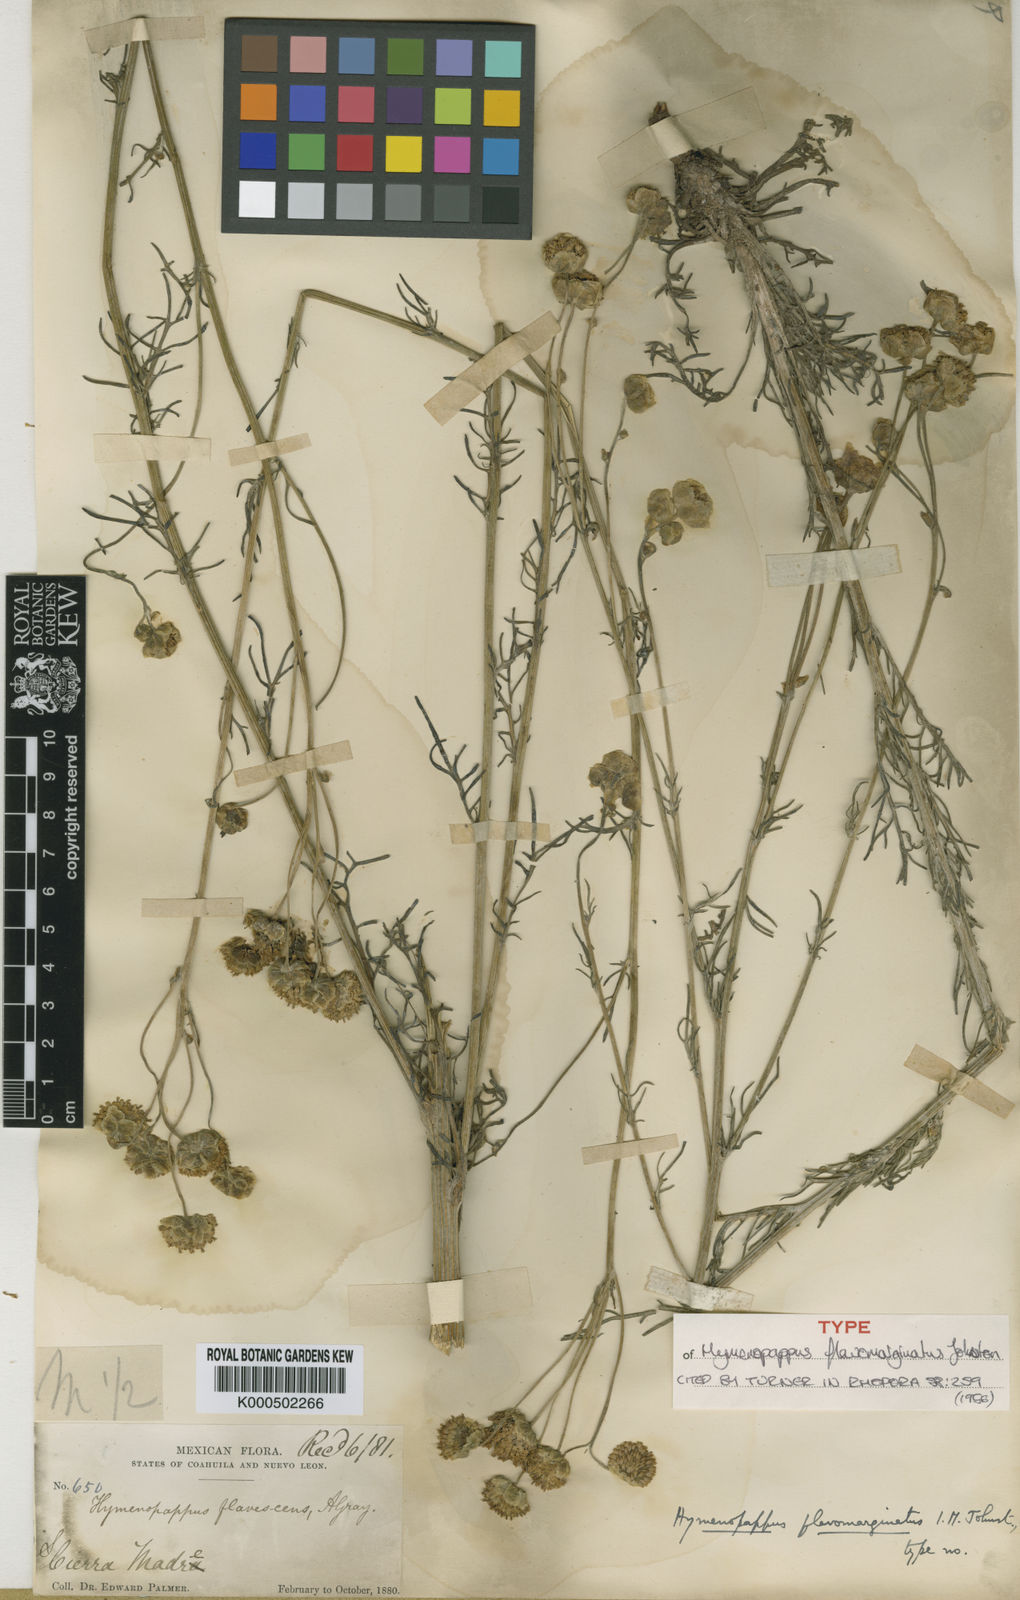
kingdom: Plantae
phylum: Tracheophyta
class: Magnoliopsida
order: Asterales
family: Asteraceae
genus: Hymenopappus
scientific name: Hymenopappus flavomarginatus
